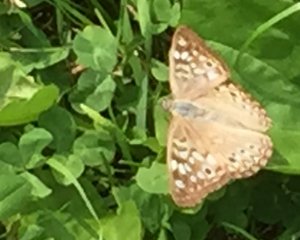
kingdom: Animalia
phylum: Arthropoda
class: Insecta
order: Lepidoptera
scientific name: Lepidoptera
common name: Butterflies
